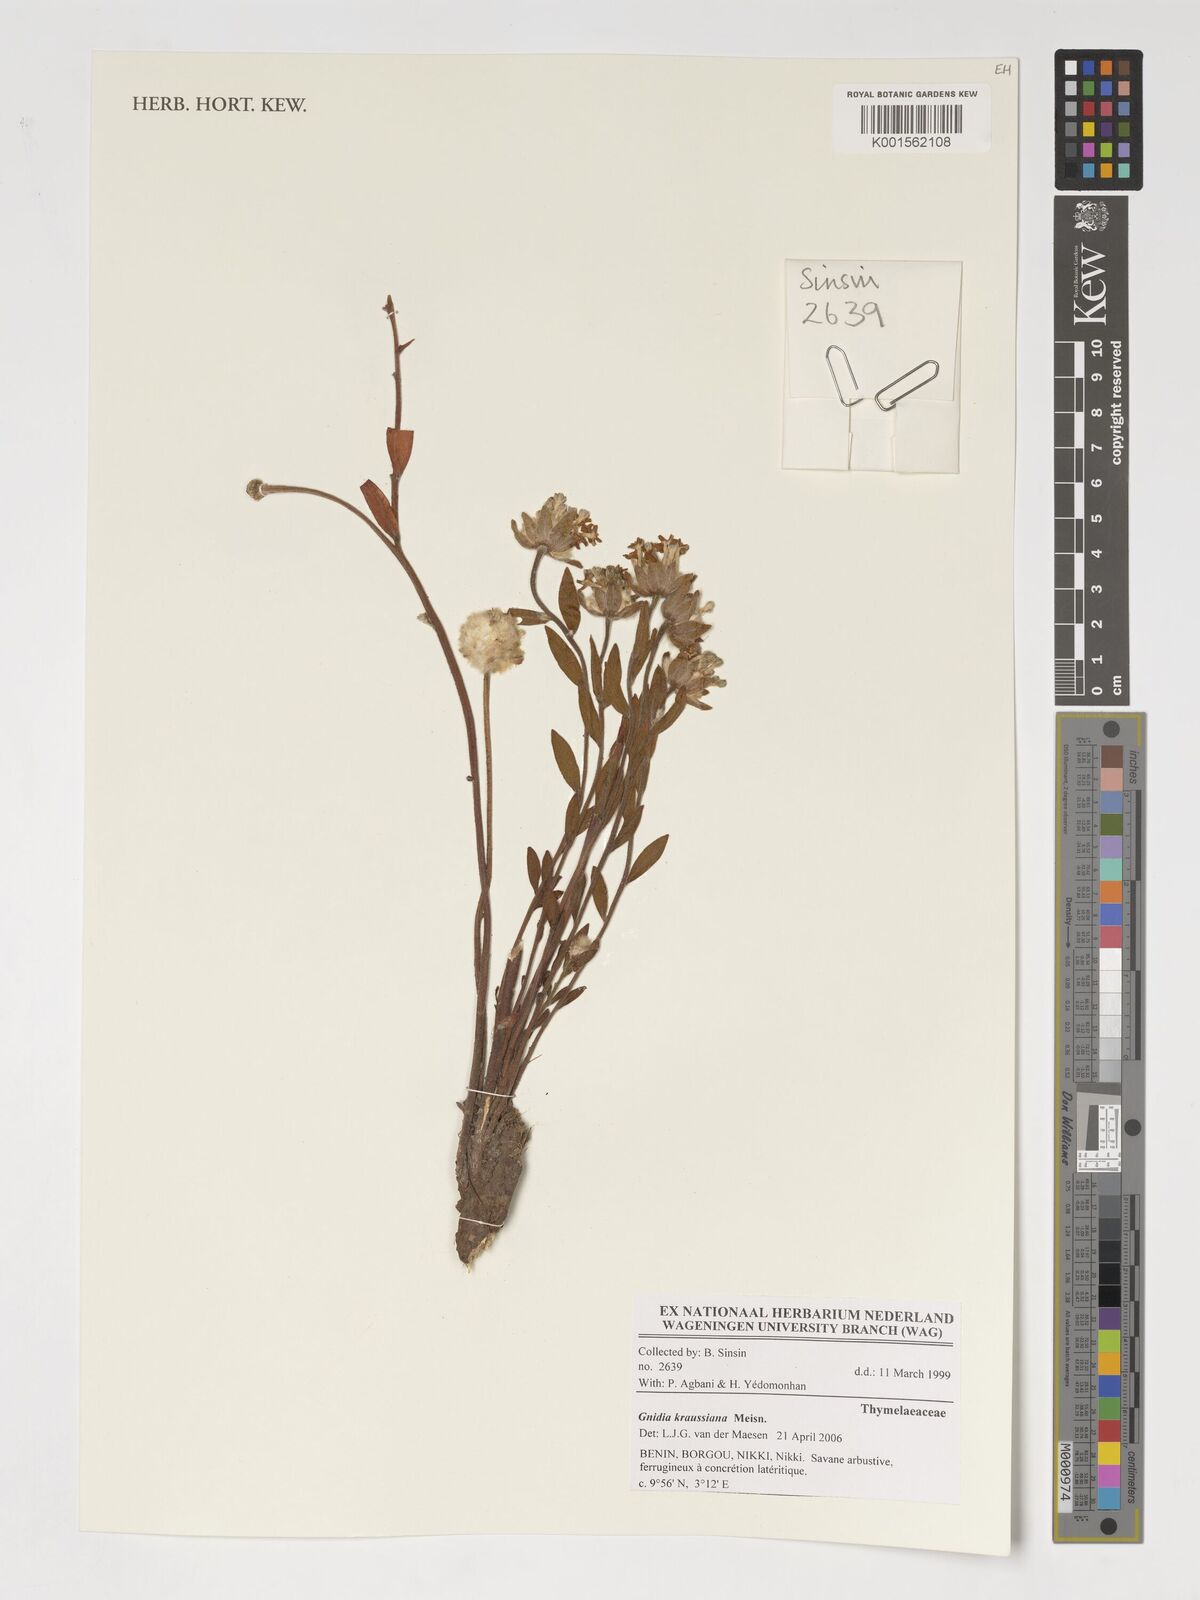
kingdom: Plantae
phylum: Tracheophyta
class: Magnoliopsida
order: Malvales
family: Thymelaeaceae
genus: Gnidia
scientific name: Gnidia kraussiana
